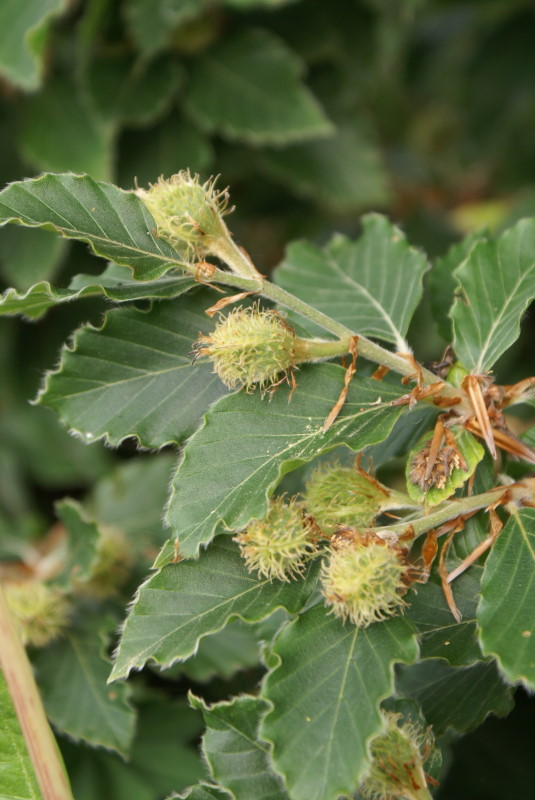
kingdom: Plantae
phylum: Tracheophyta
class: Magnoliopsida
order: Fagales
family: Fagaceae
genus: Fagus
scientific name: Fagus sylvatica
